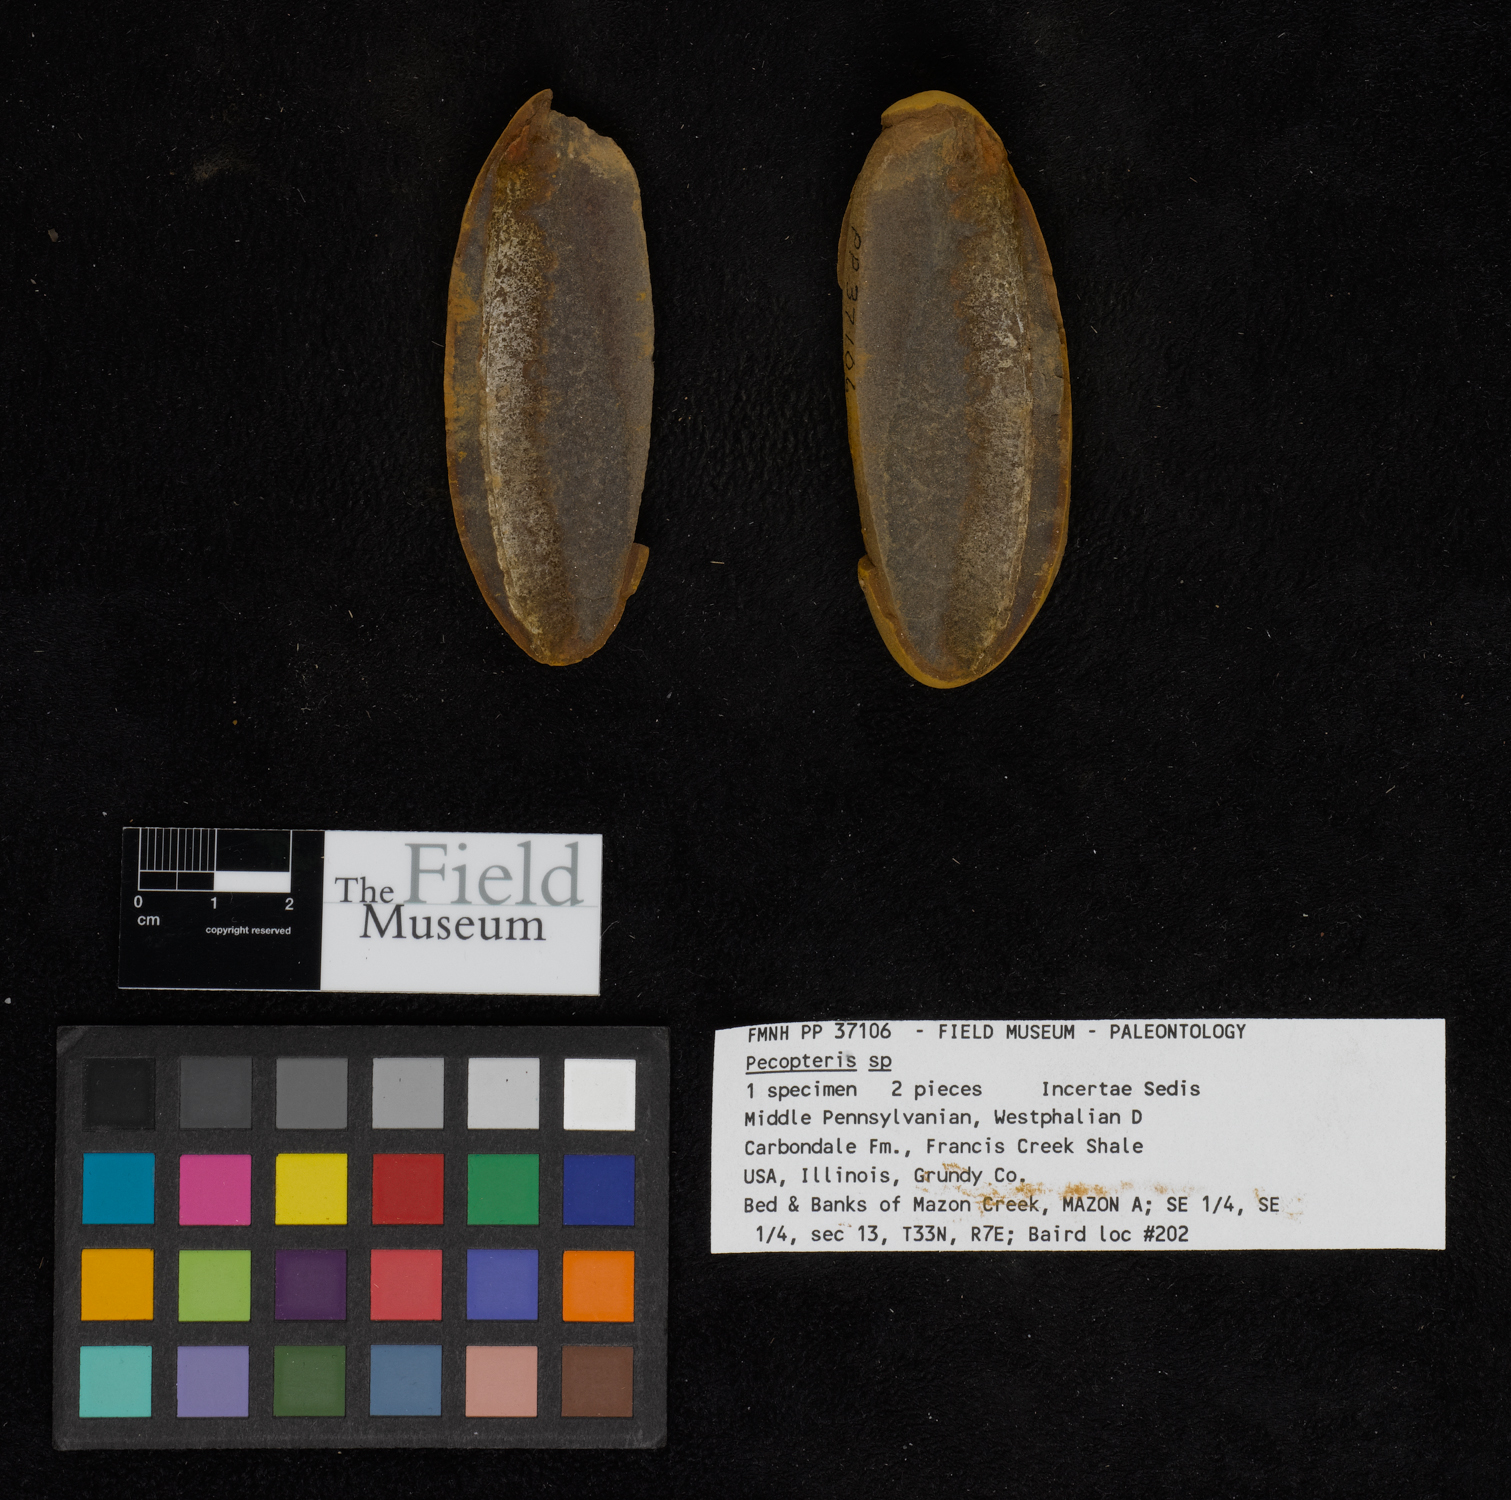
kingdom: Plantae
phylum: Tracheophyta
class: Polypodiopsida
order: Marattiales
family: Asterothecaceae
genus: Pecopteris
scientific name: Pecopteris
